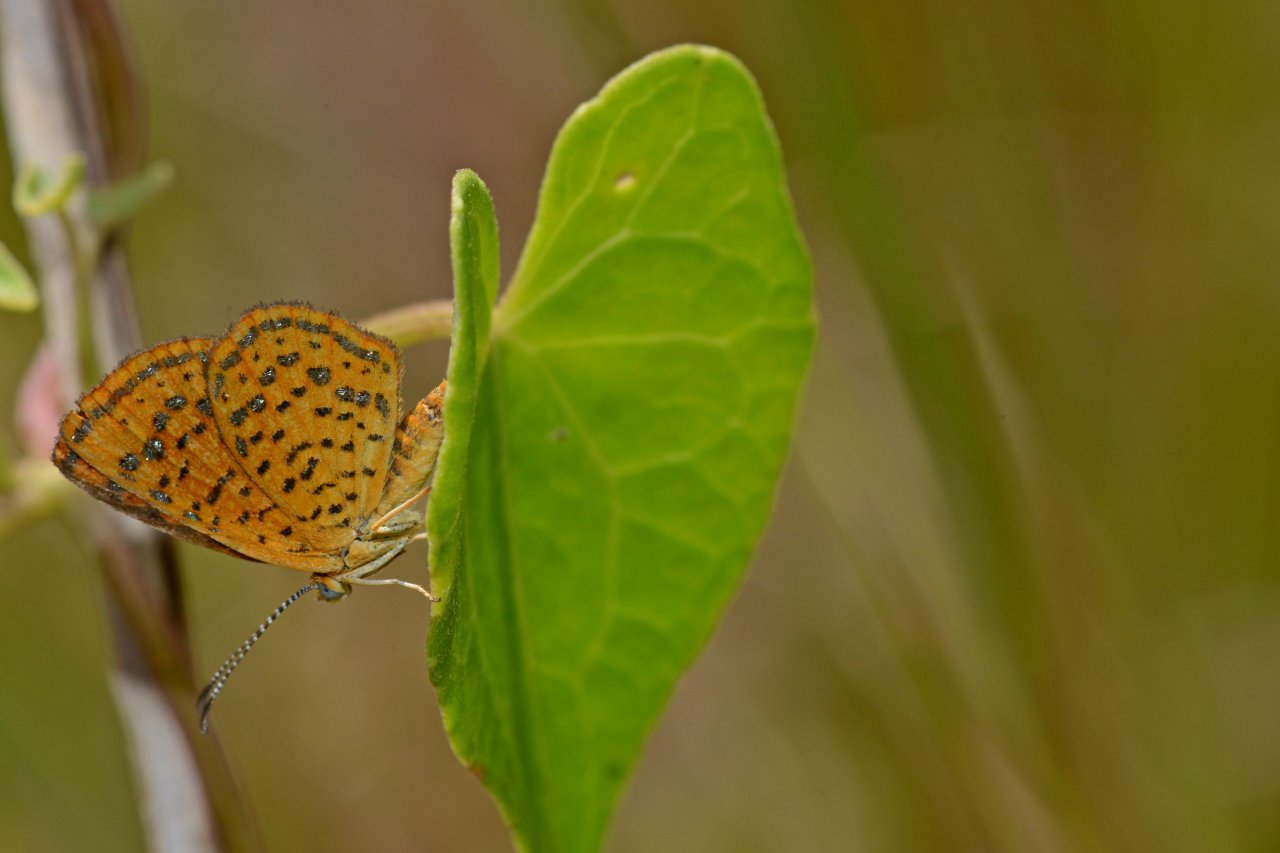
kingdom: Animalia
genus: Calephelis
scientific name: Calephelis virginiensis
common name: Little Metalmark
